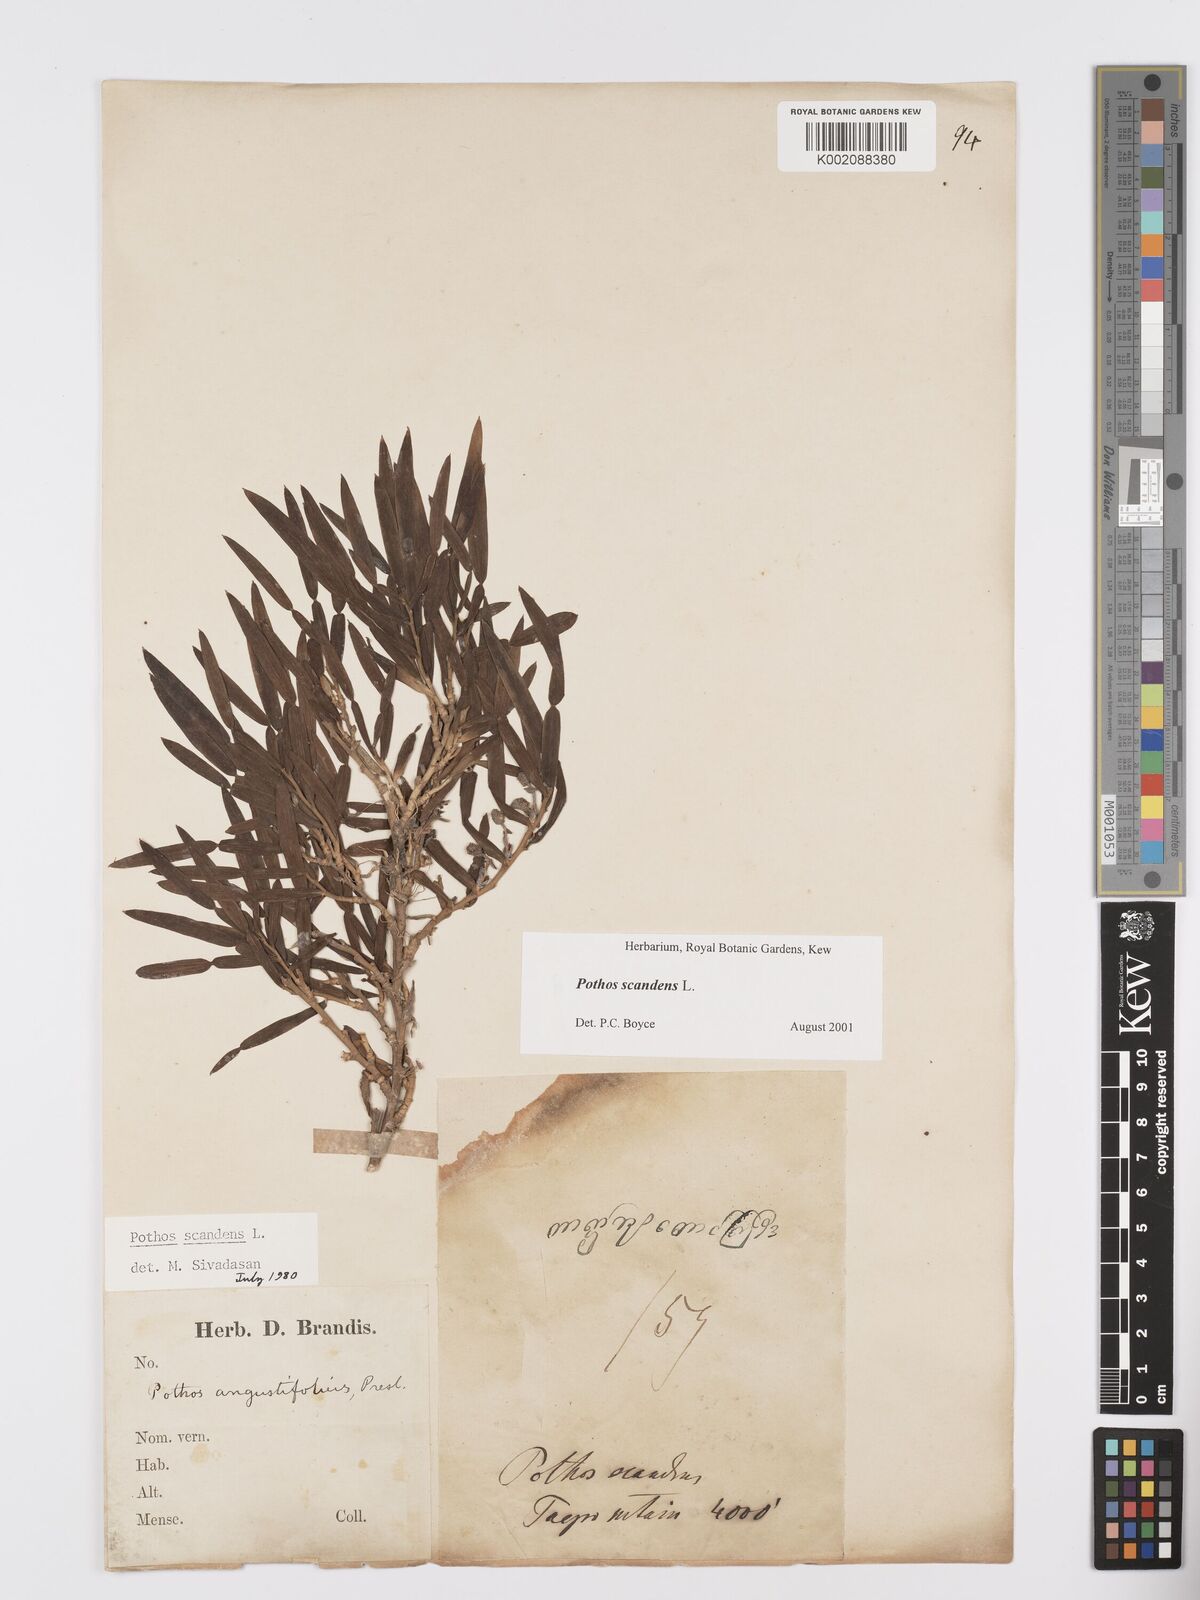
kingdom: Plantae
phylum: Tracheophyta
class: Liliopsida
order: Alismatales
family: Araceae
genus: Pothos
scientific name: Pothos scandens
